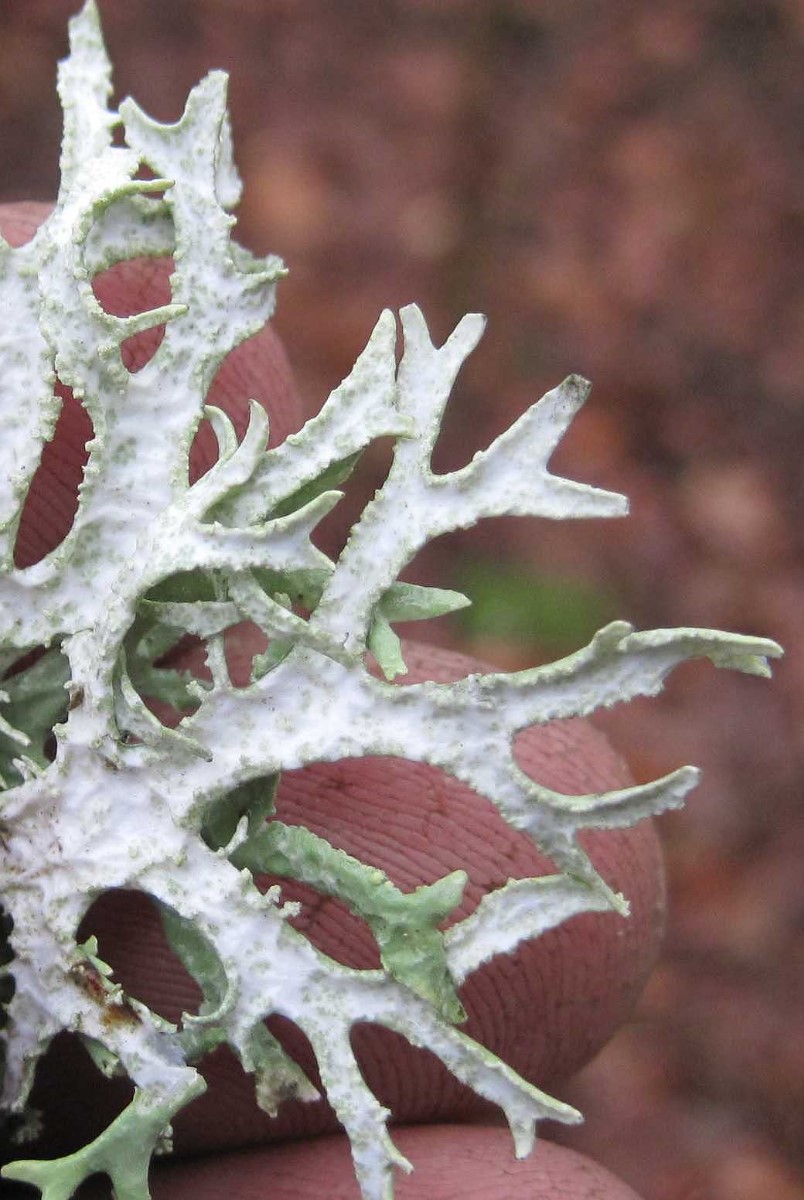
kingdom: Fungi
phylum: Ascomycota
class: Lecanoromycetes
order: Lecanorales
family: Parmeliaceae
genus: Evernia
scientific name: Evernia prunastri
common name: almindelig slåenlav
